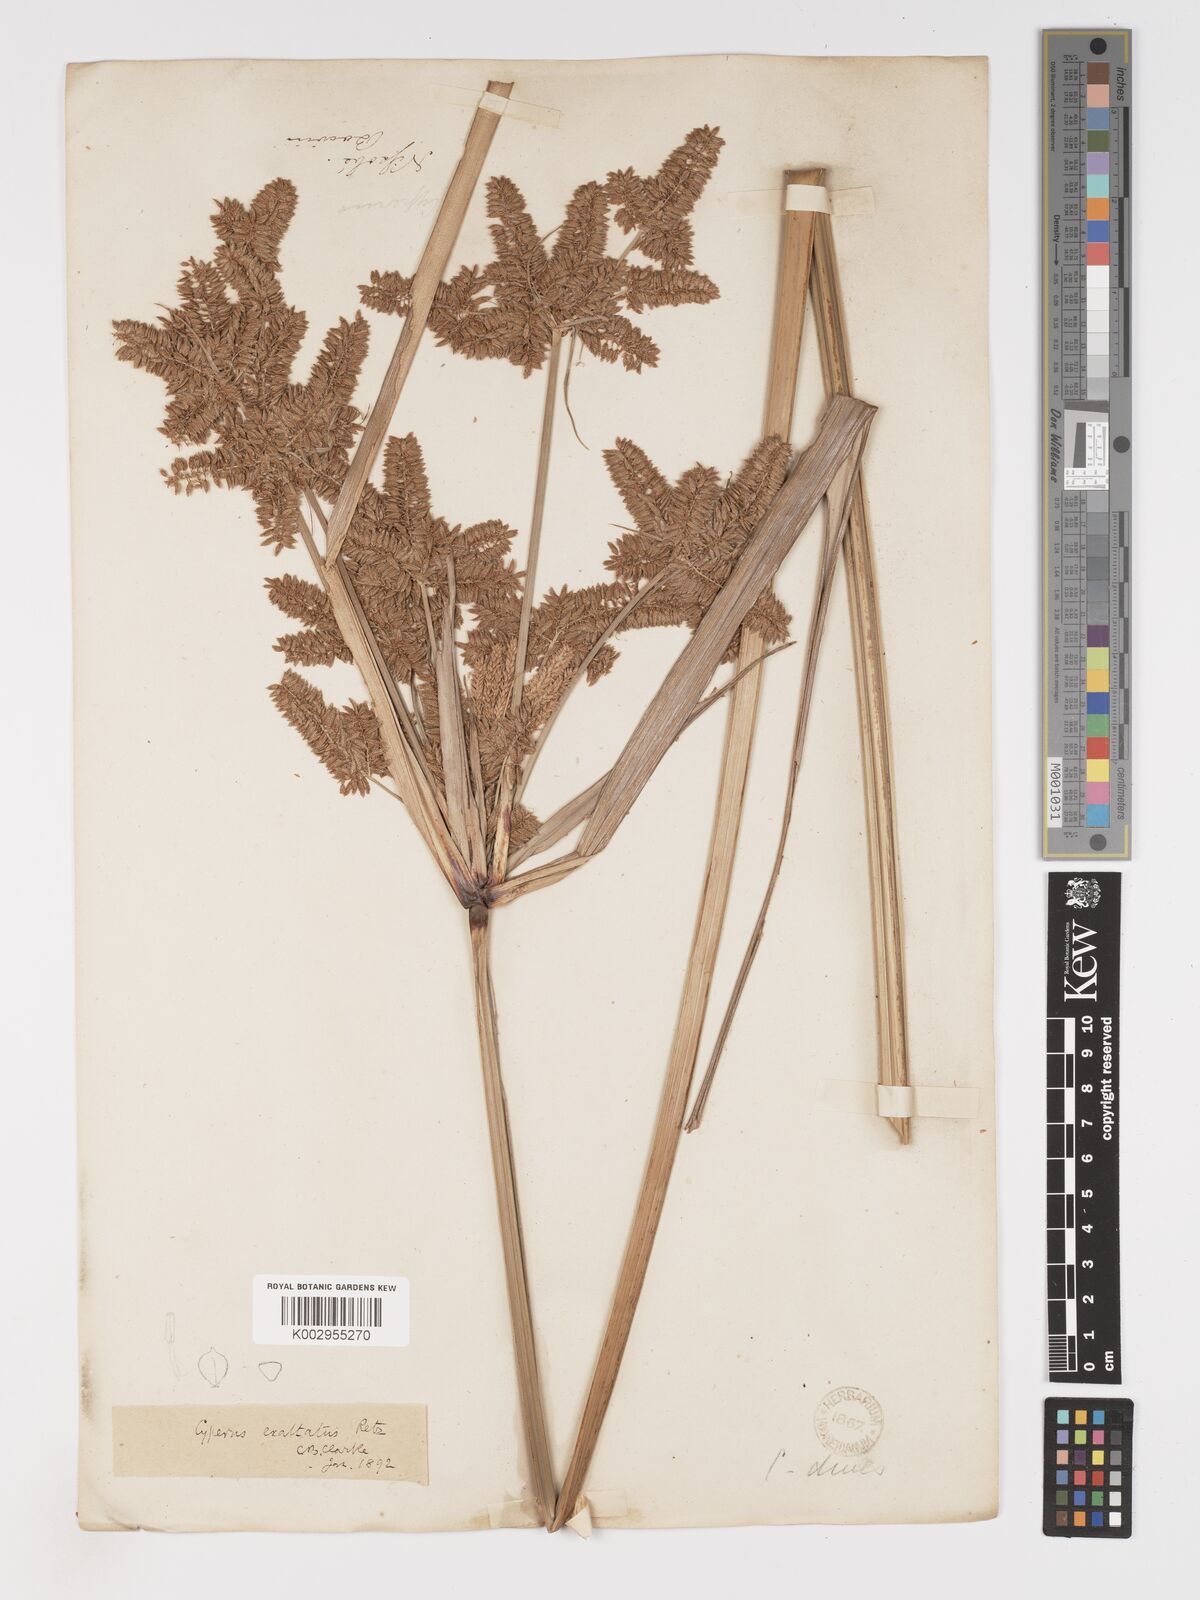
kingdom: Plantae
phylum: Tracheophyta
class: Liliopsida
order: Poales
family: Cyperaceae
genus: Cyperus
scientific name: Cyperus exaltatus
